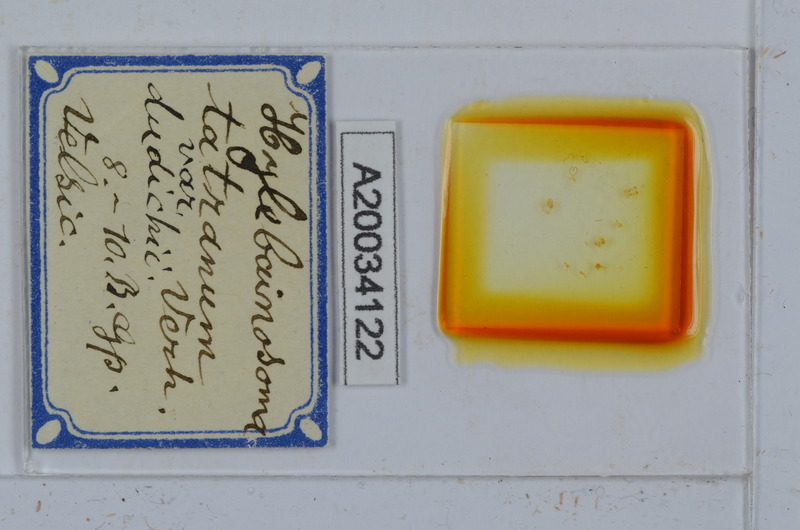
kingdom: Animalia
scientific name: Animalia
